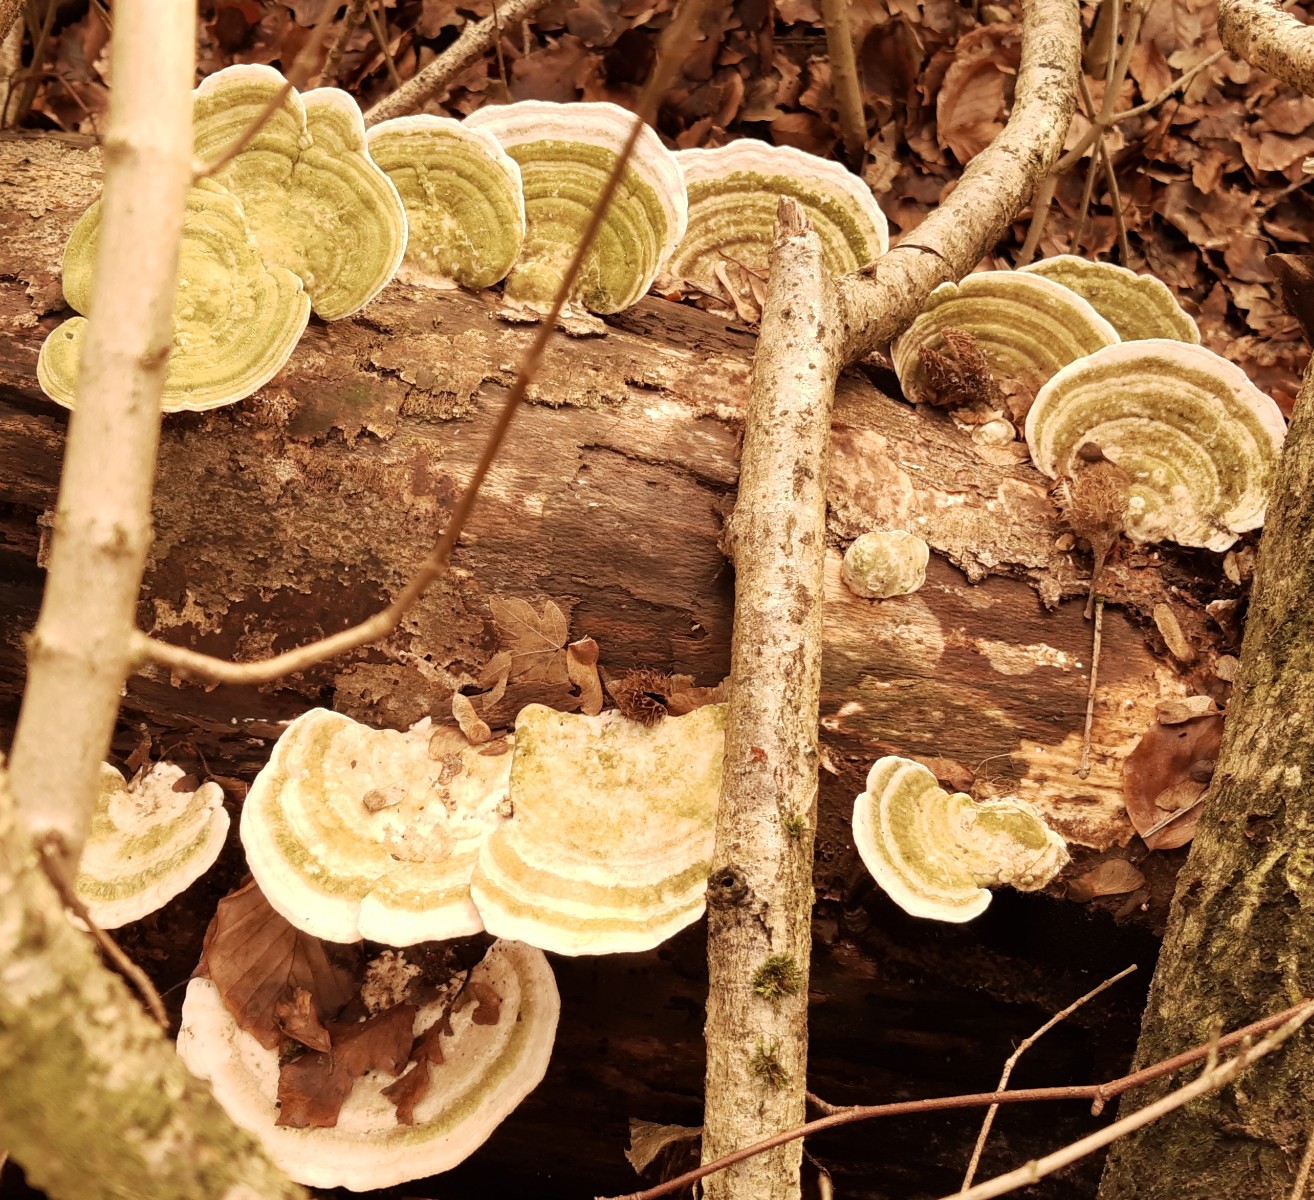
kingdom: Fungi
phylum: Basidiomycota
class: Agaricomycetes
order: Polyporales
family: Polyporaceae
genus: Trametes
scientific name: Trametes gibbosa
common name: puklet læderporesvamp
